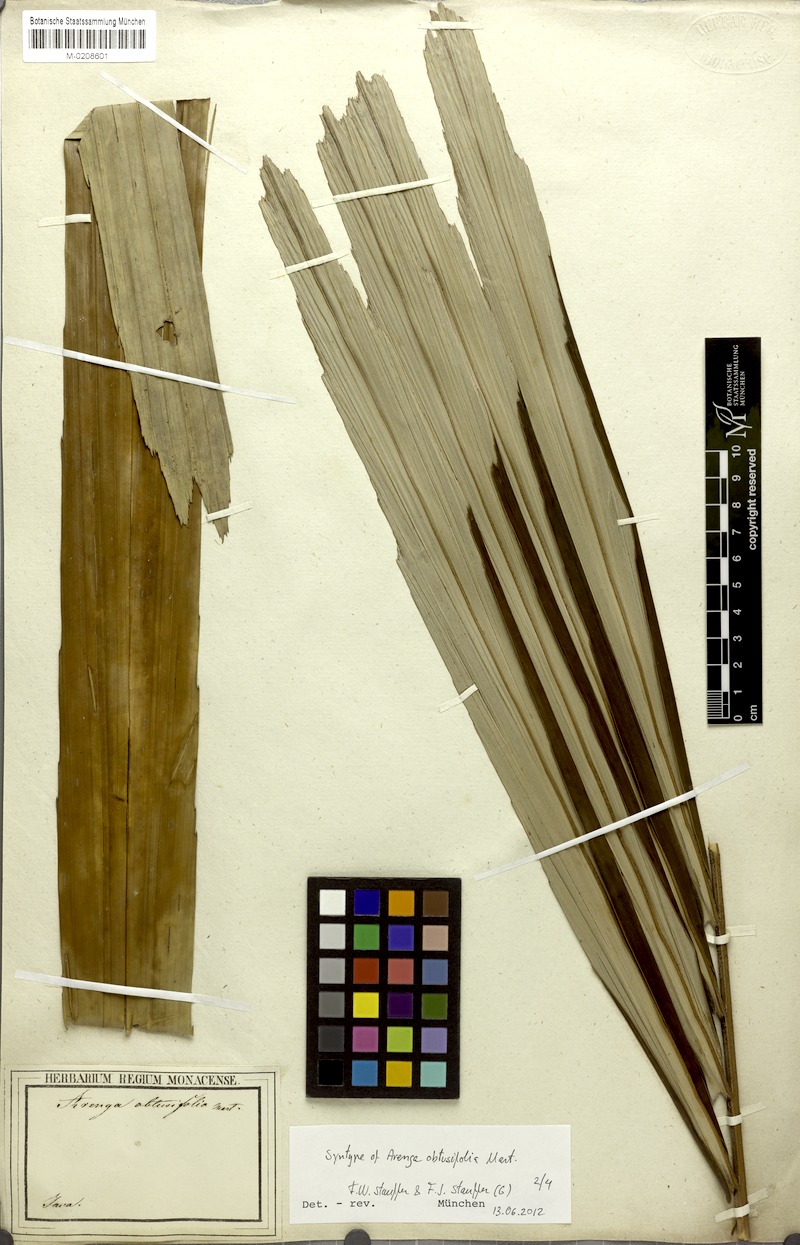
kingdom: Plantae
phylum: Tracheophyta
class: Liliopsida
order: Arecales
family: Arecaceae
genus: Arenga
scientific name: Arenga obtusifolia
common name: Lang kap
